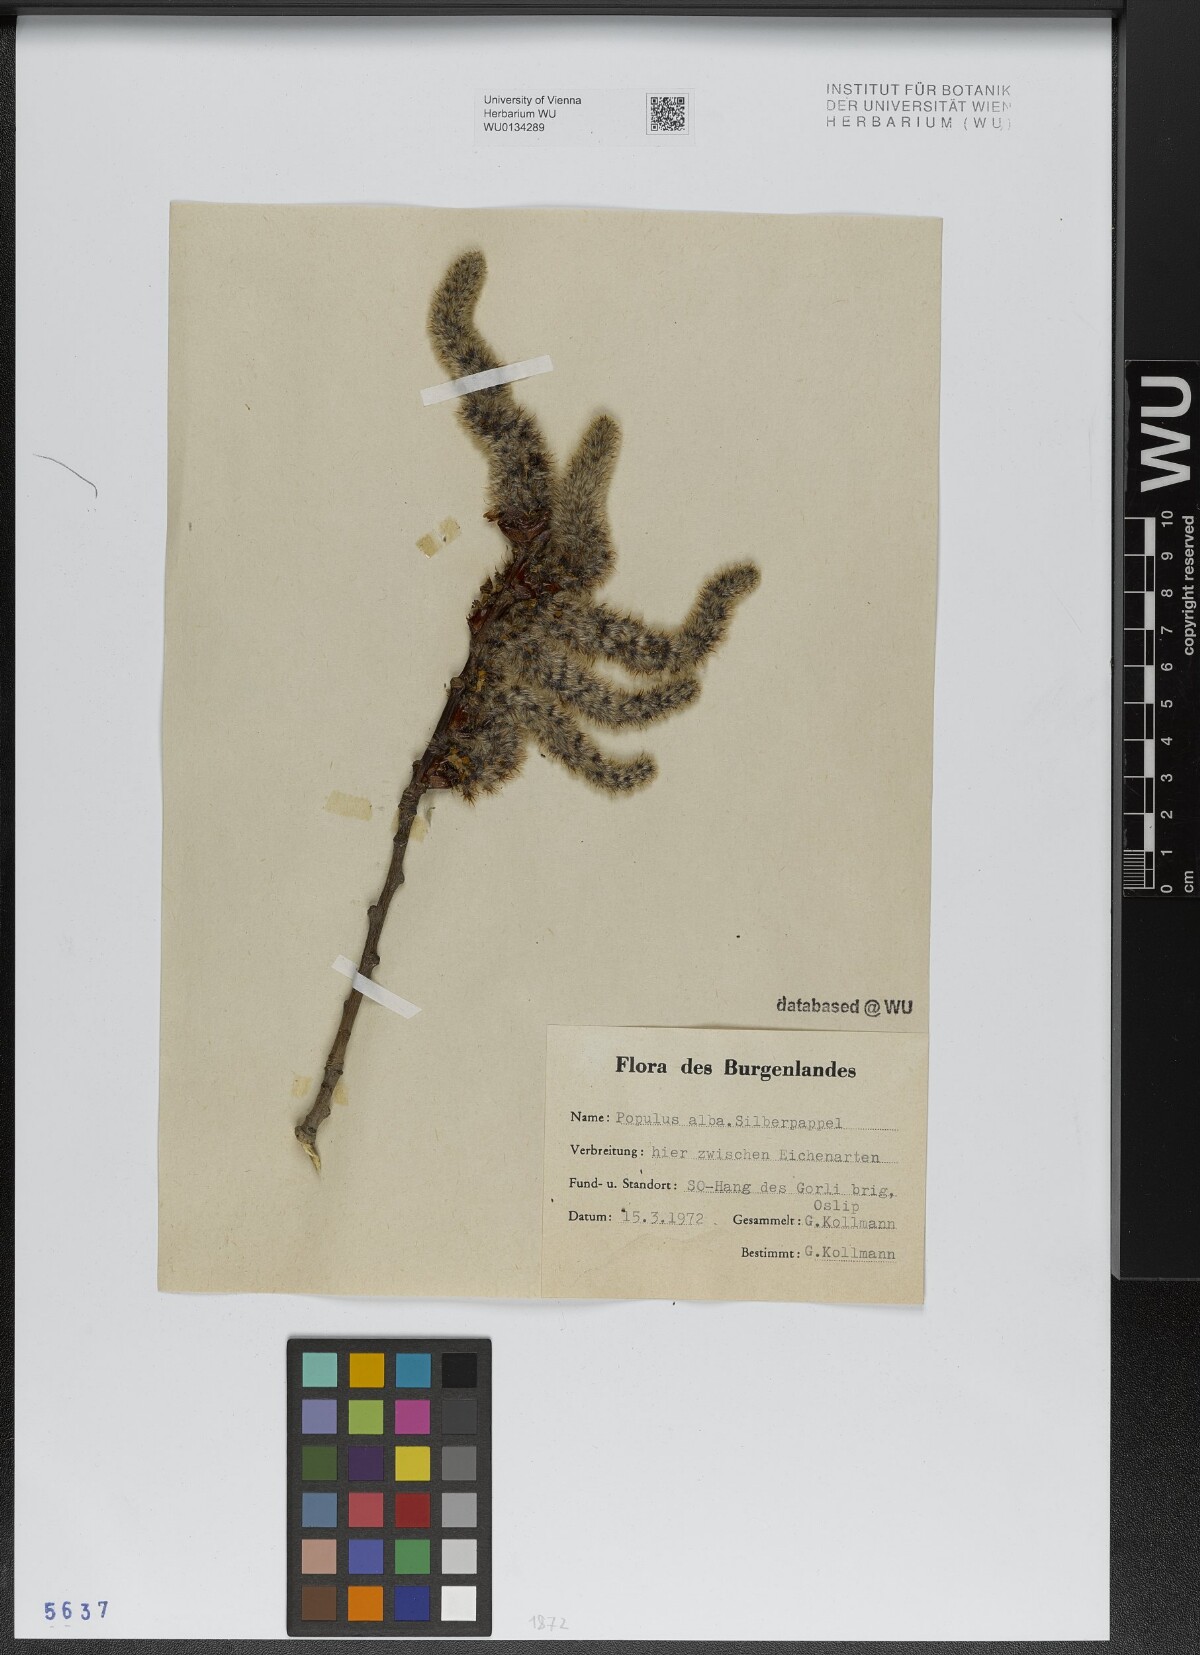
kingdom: Plantae
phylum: Tracheophyta
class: Magnoliopsida
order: Malpighiales
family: Salicaceae
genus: Populus
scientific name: Populus alba
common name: White poplar
